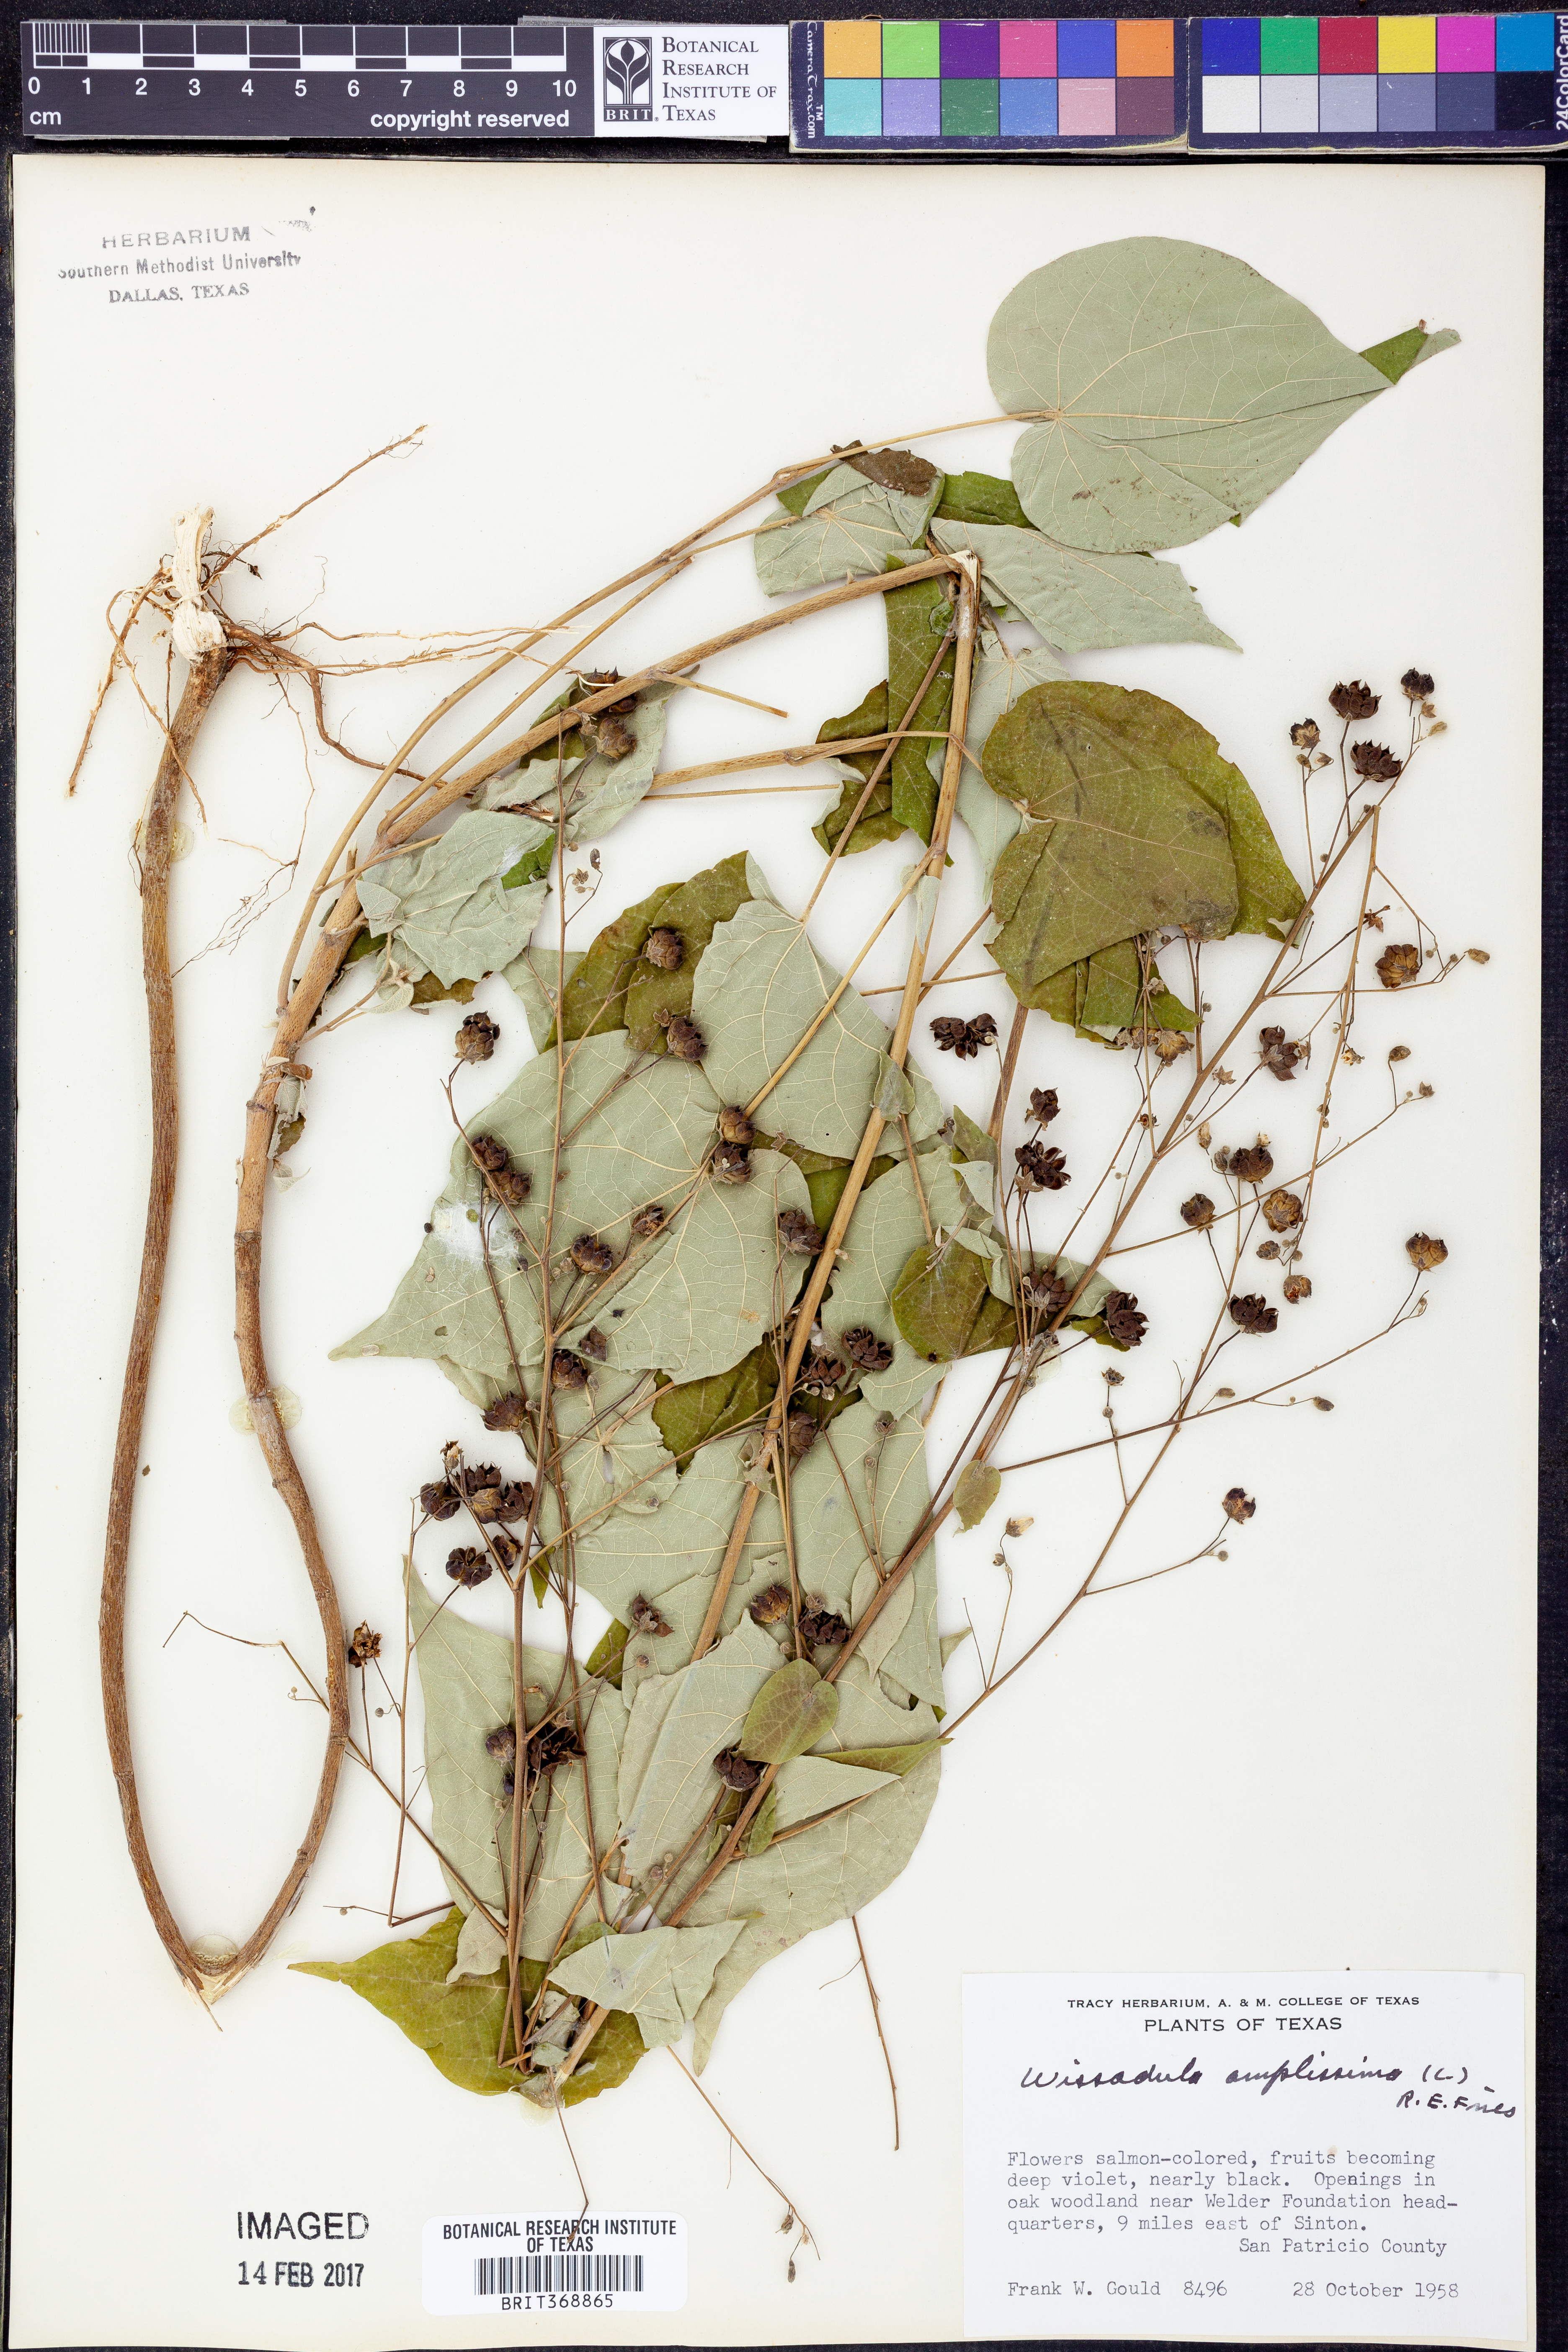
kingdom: Plantae
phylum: Tracheophyta
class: Magnoliopsida
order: Malvales
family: Malvaceae
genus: Wissadula
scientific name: Wissadula amplissima
